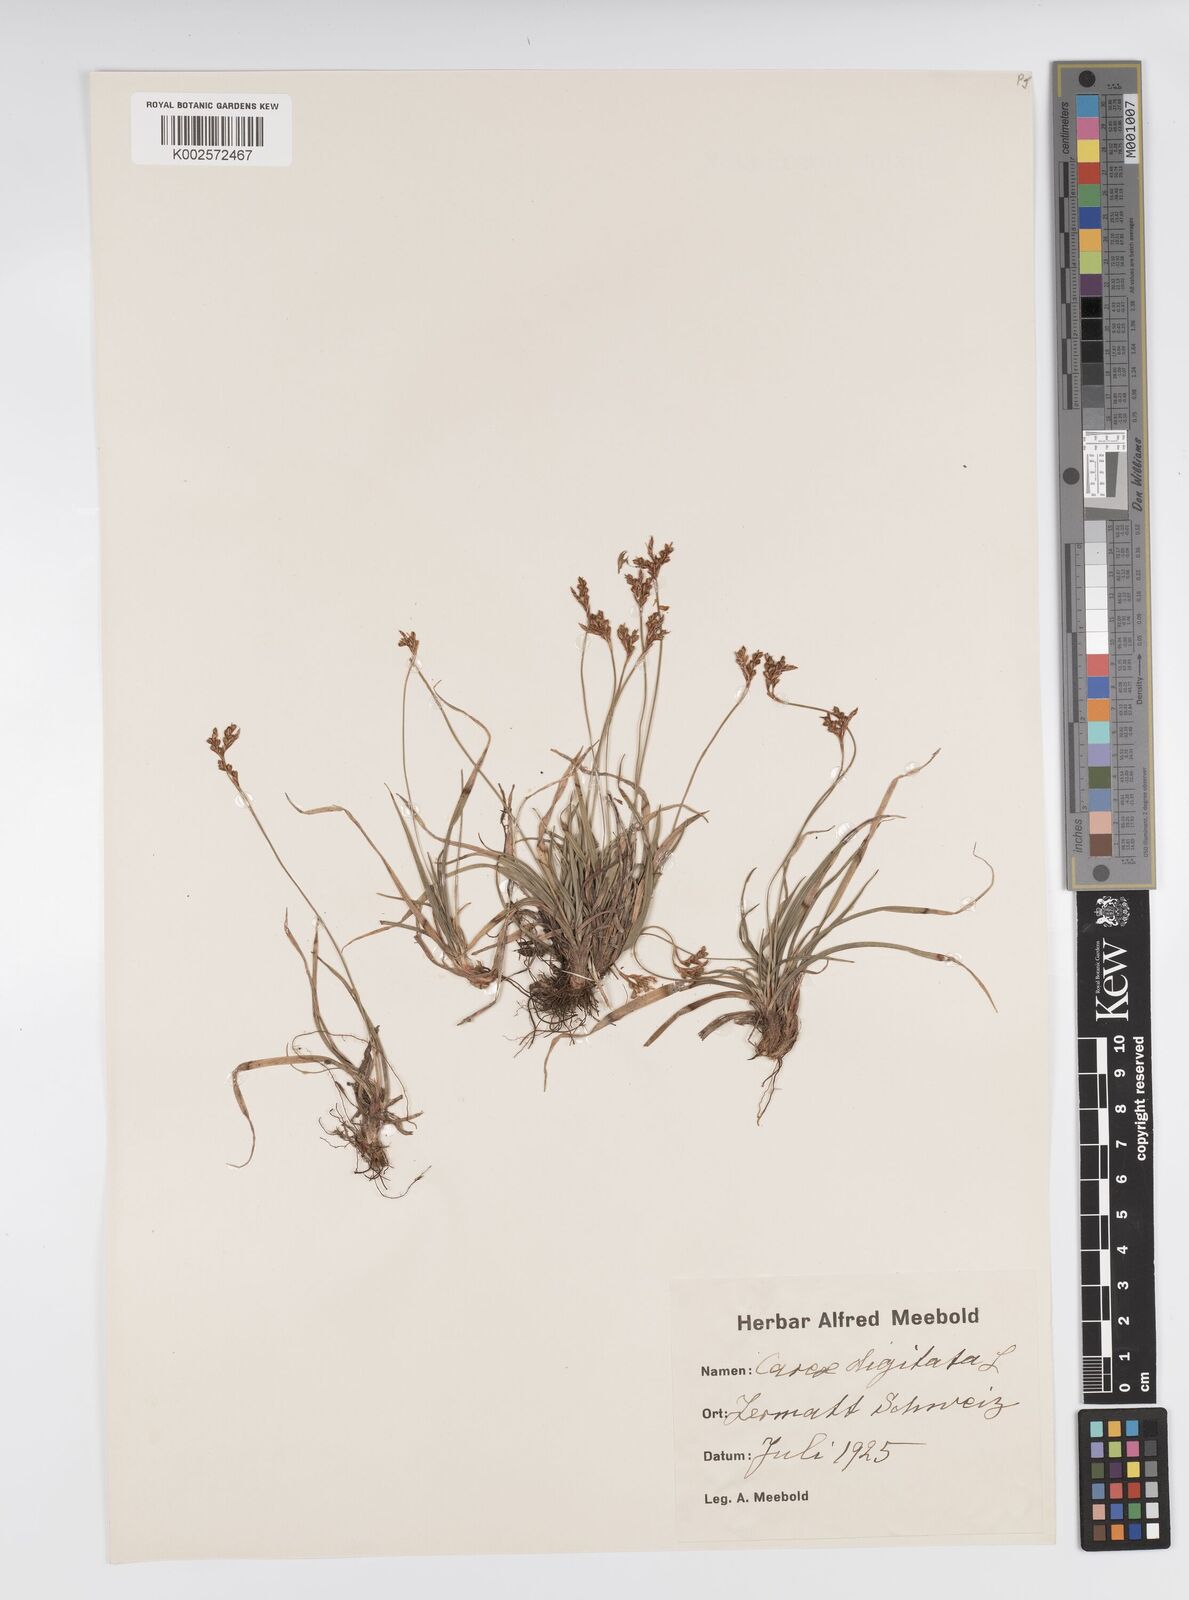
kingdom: Plantae
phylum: Tracheophyta
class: Liliopsida
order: Poales
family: Cyperaceae
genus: Carex
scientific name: Carex digitata
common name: Fingered sedge
